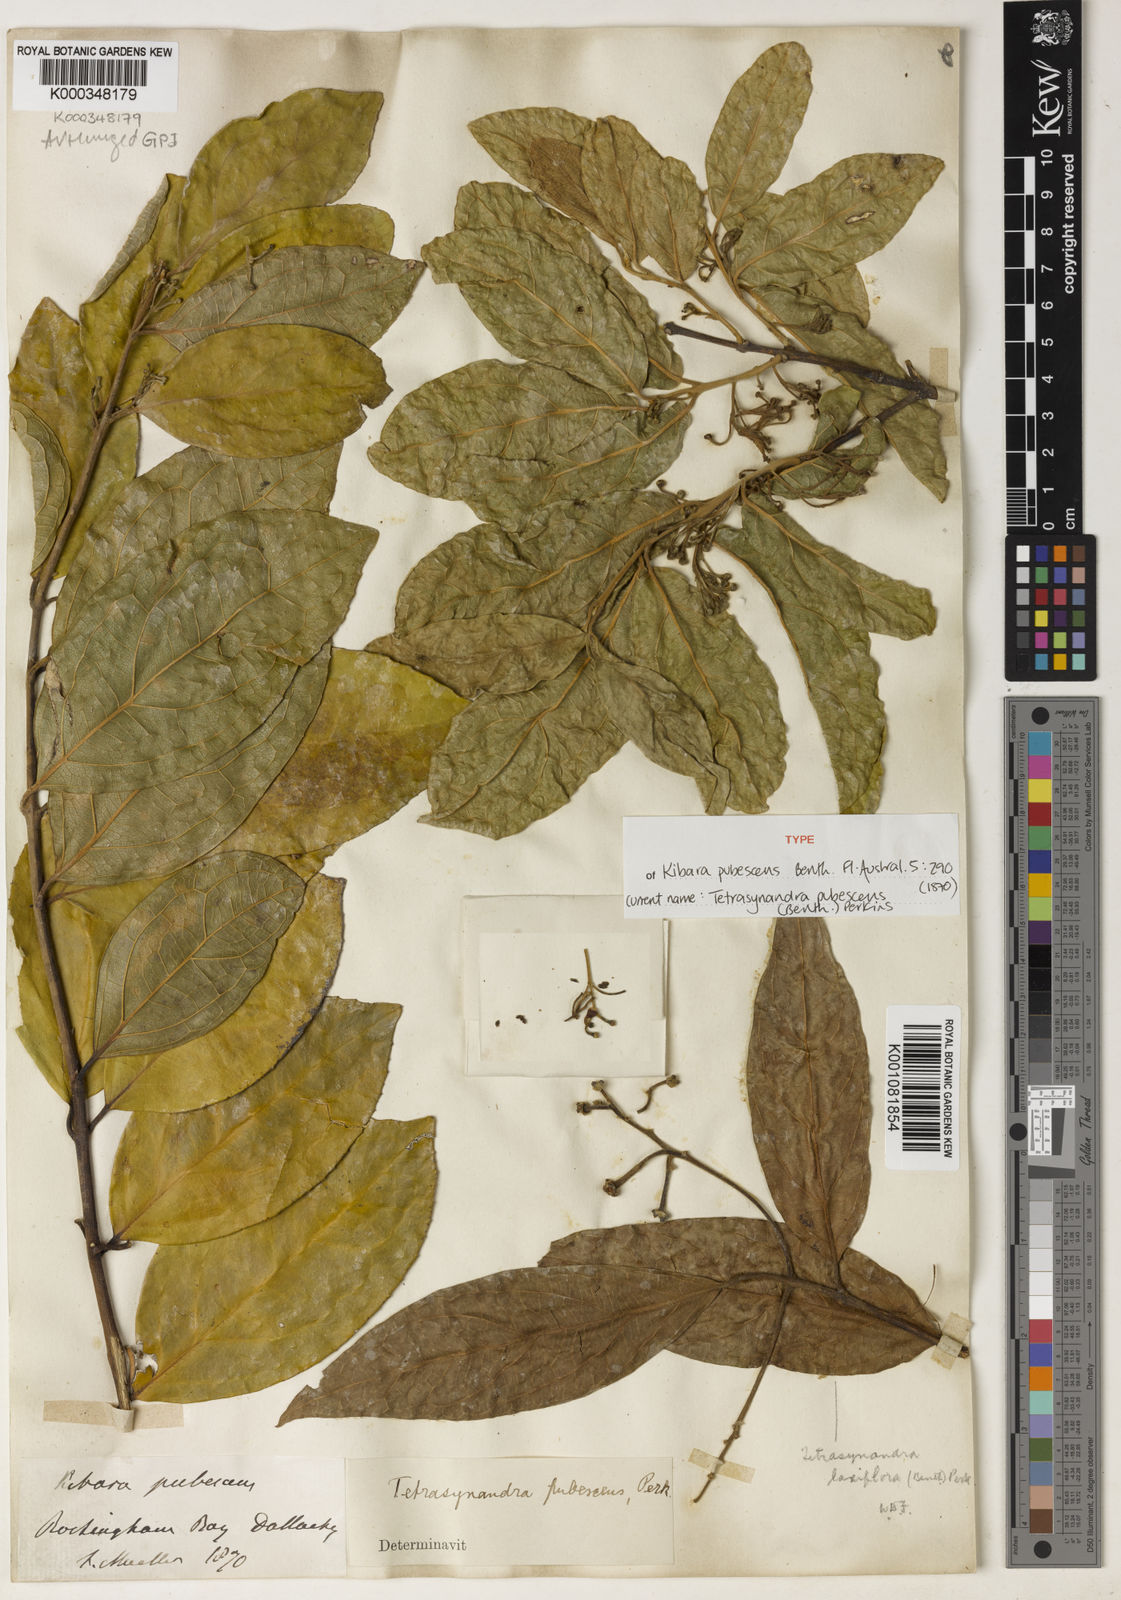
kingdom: Plantae
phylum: Tracheophyta
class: Magnoliopsida
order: Laurales
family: Monimiaceae
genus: Wilkiea
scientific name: Wilkiea pubescens
